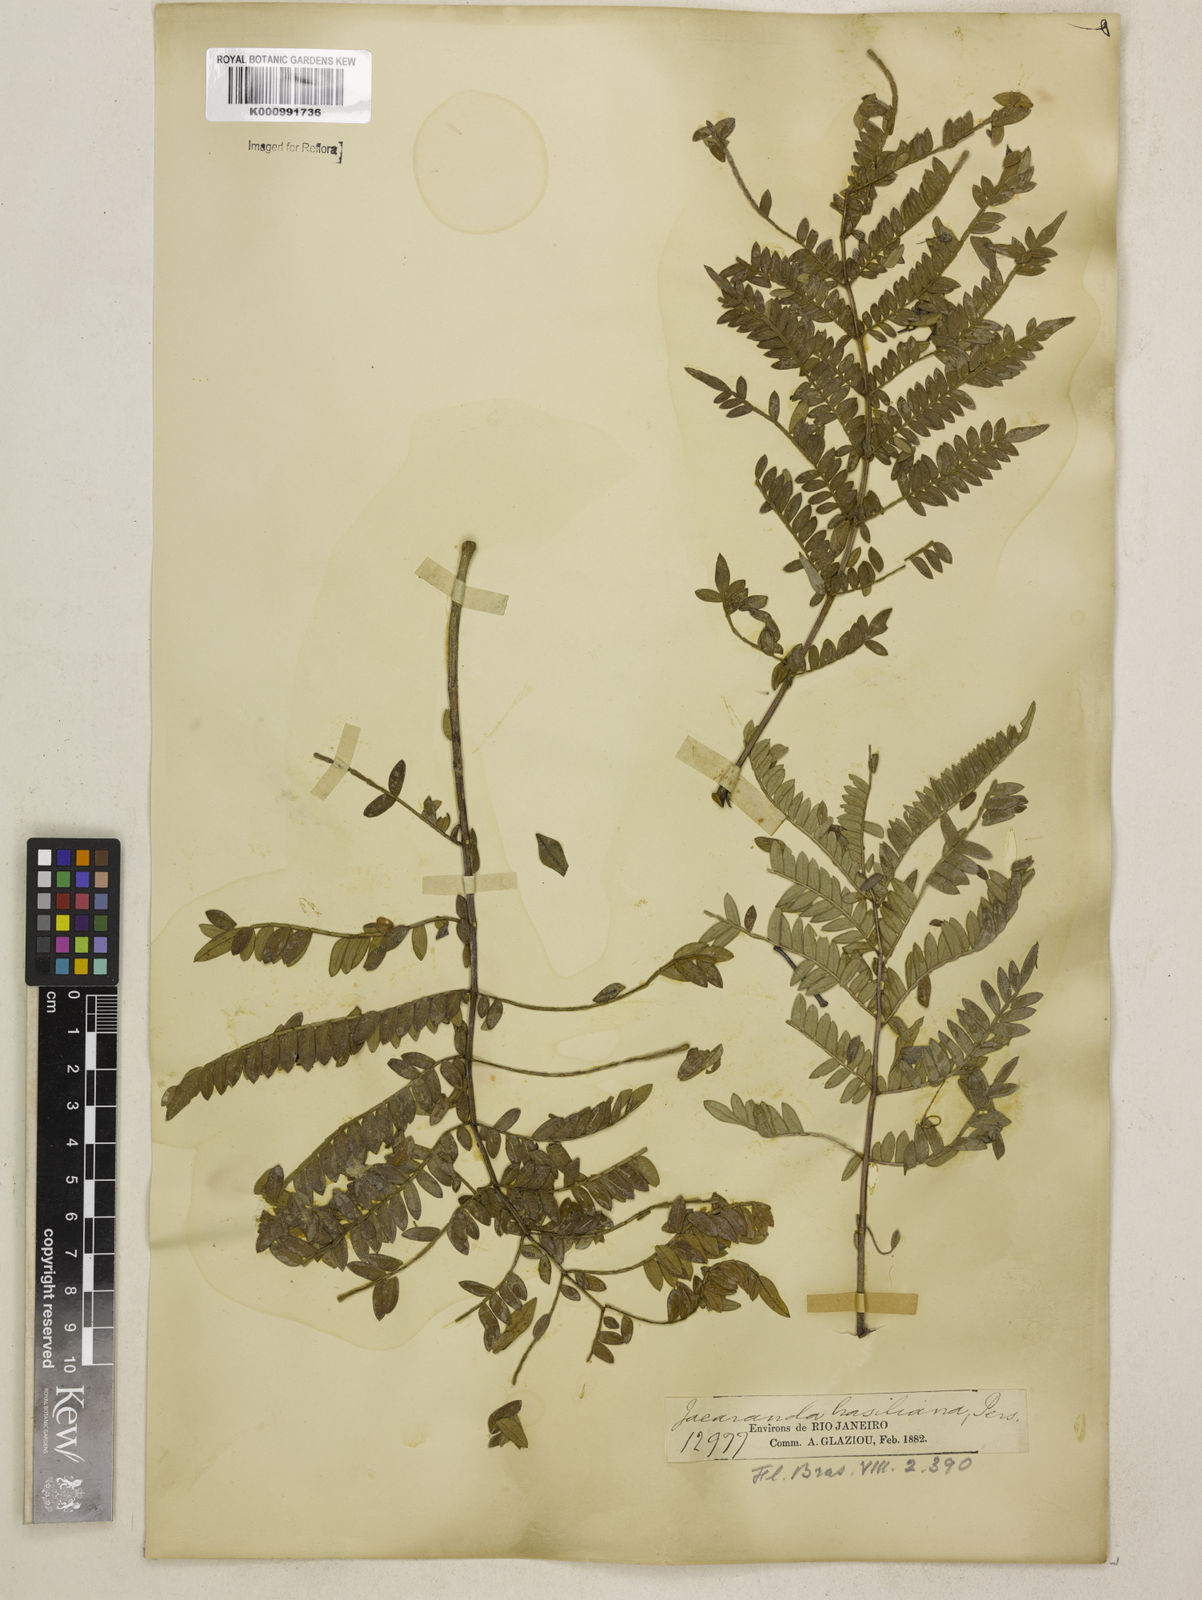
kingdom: Plantae
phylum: Tracheophyta
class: Magnoliopsida
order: Lamiales
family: Bignoniaceae
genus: Jacaranda
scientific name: Jacaranda brasiliana
